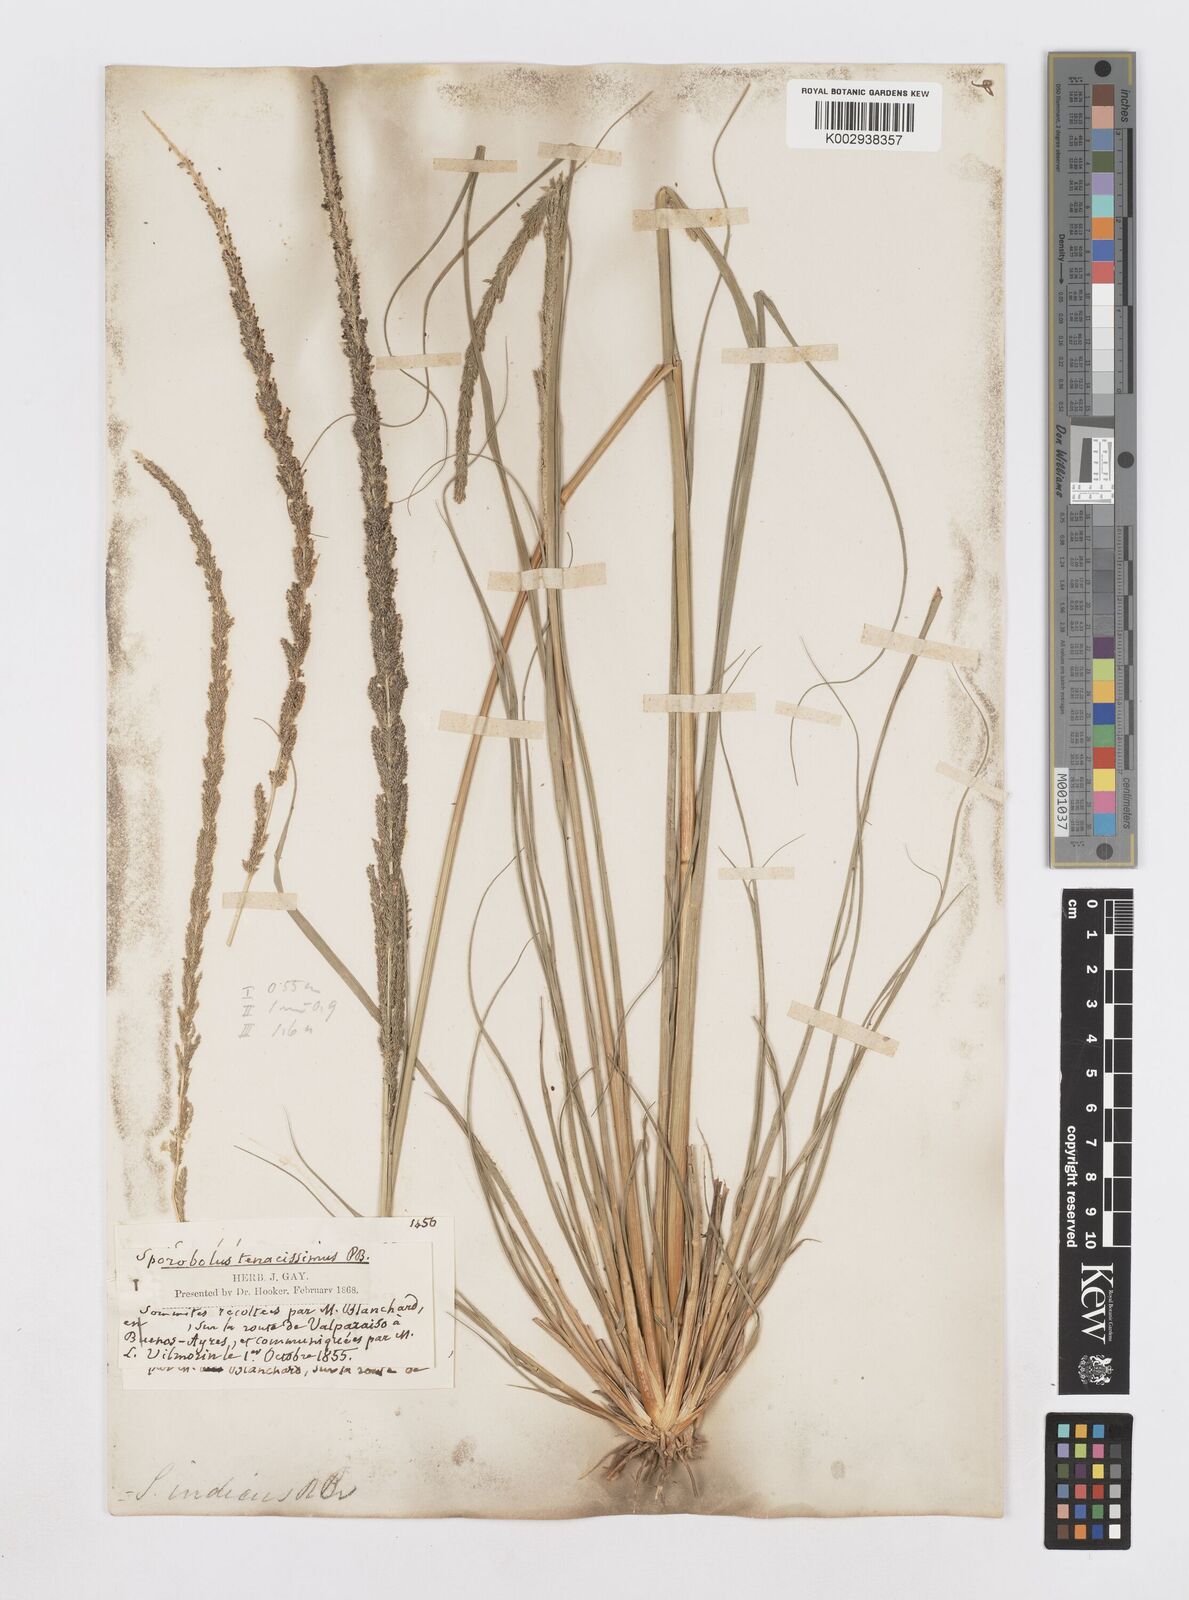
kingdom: Plantae
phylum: Tracheophyta
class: Liliopsida
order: Poales
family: Poaceae
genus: Sporobolus
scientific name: Sporobolus pyramidalis
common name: West indian dropseed
